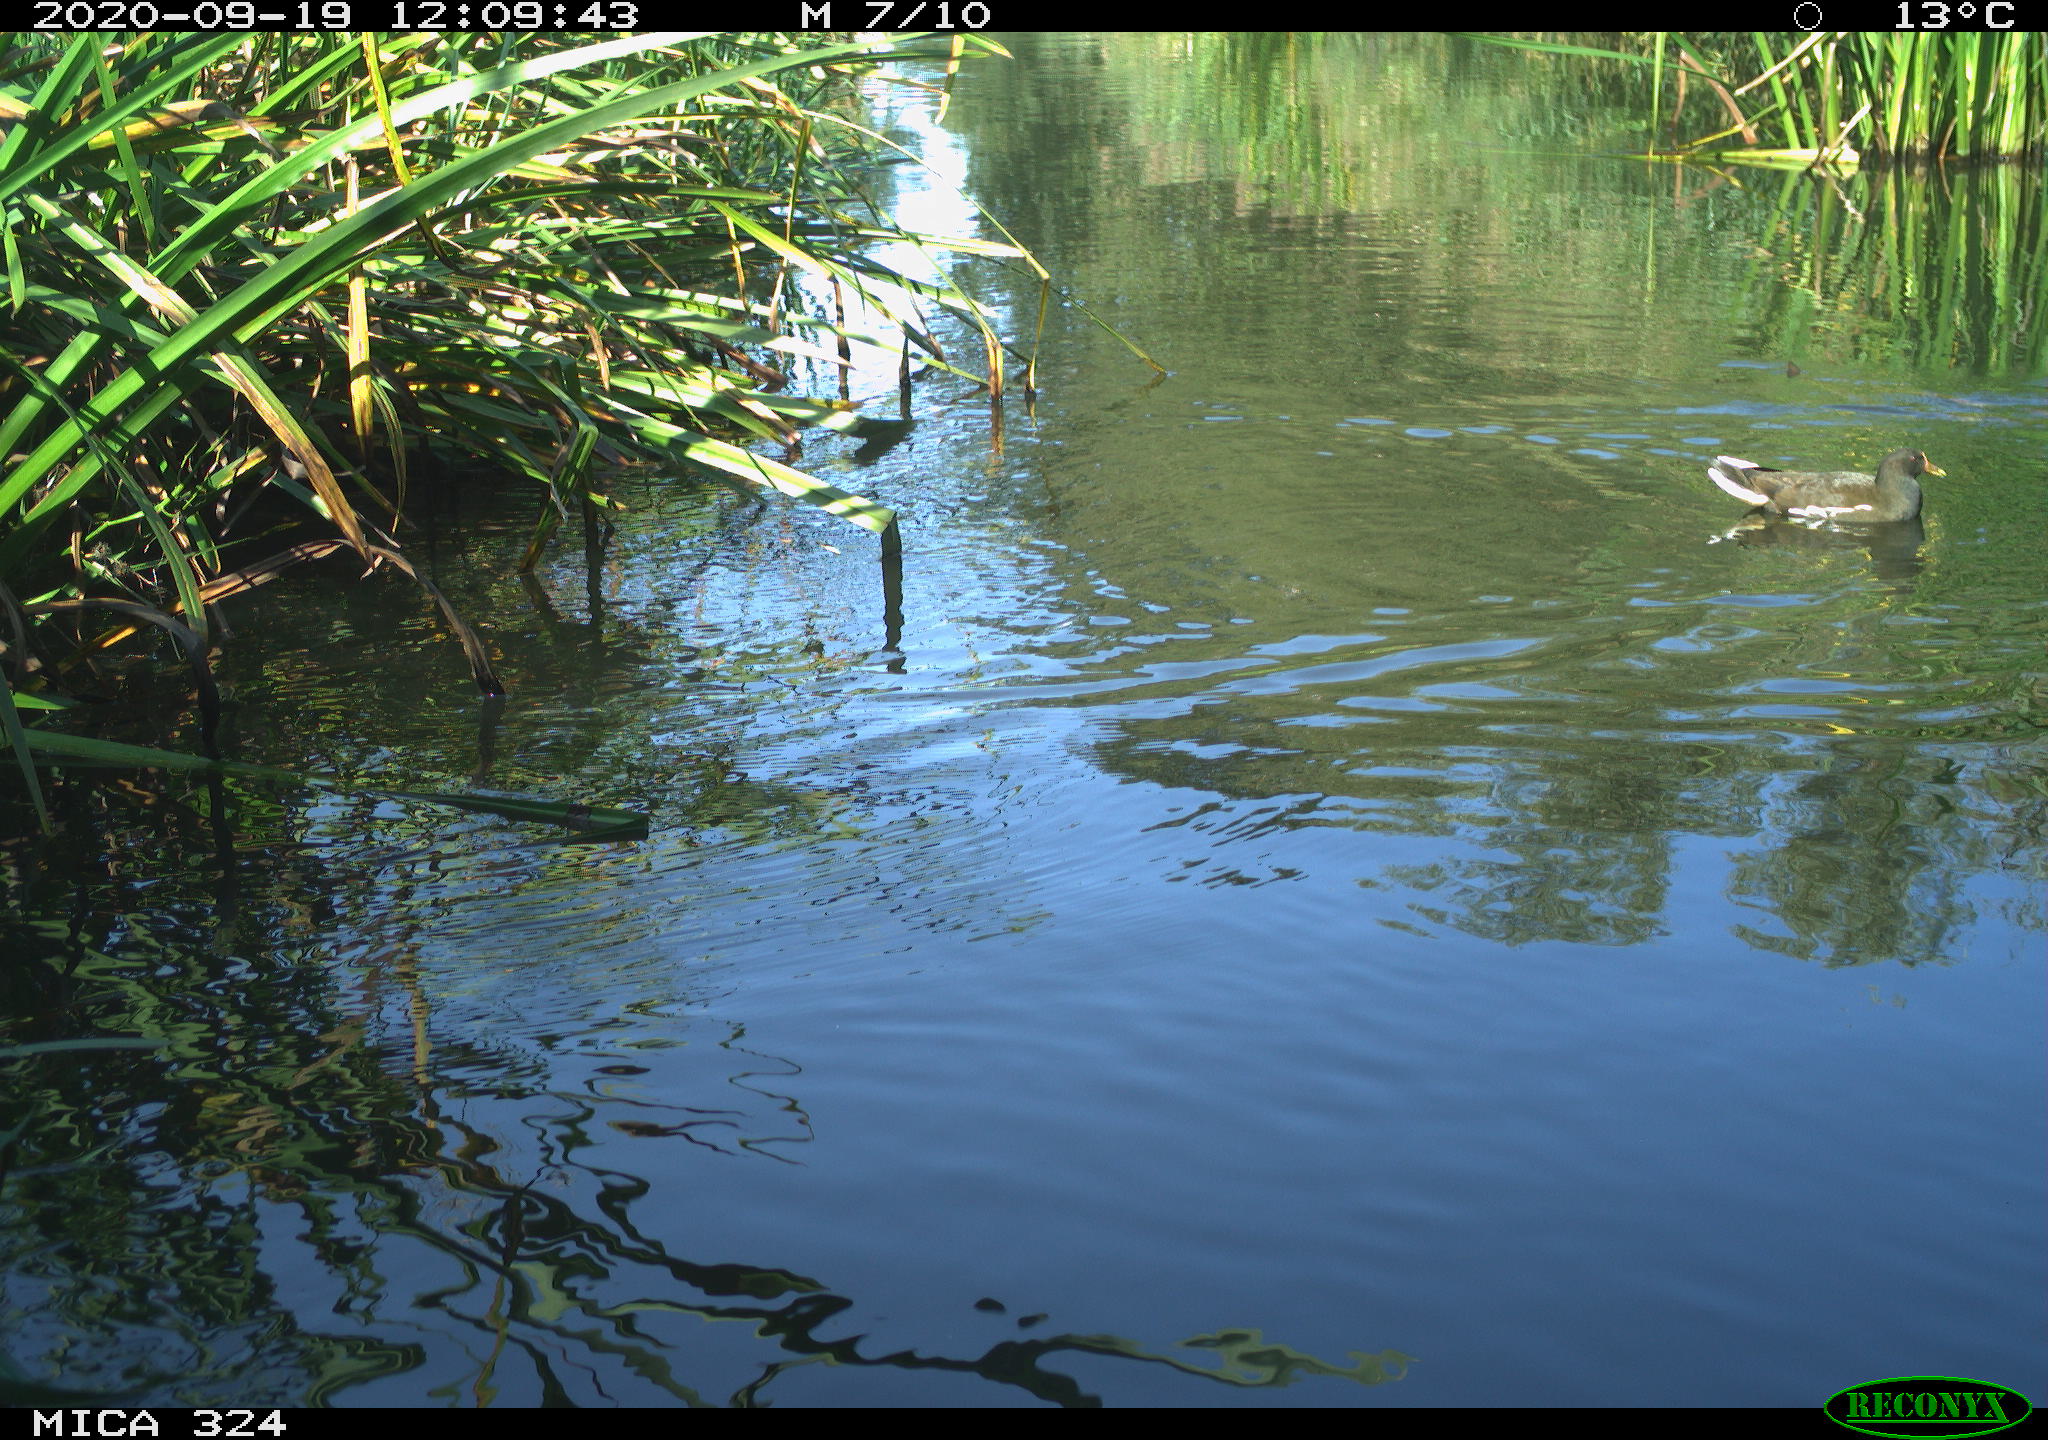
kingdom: Animalia
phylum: Chordata
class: Aves
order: Gruiformes
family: Rallidae
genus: Gallinula
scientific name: Gallinula chloropus
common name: Common moorhen
